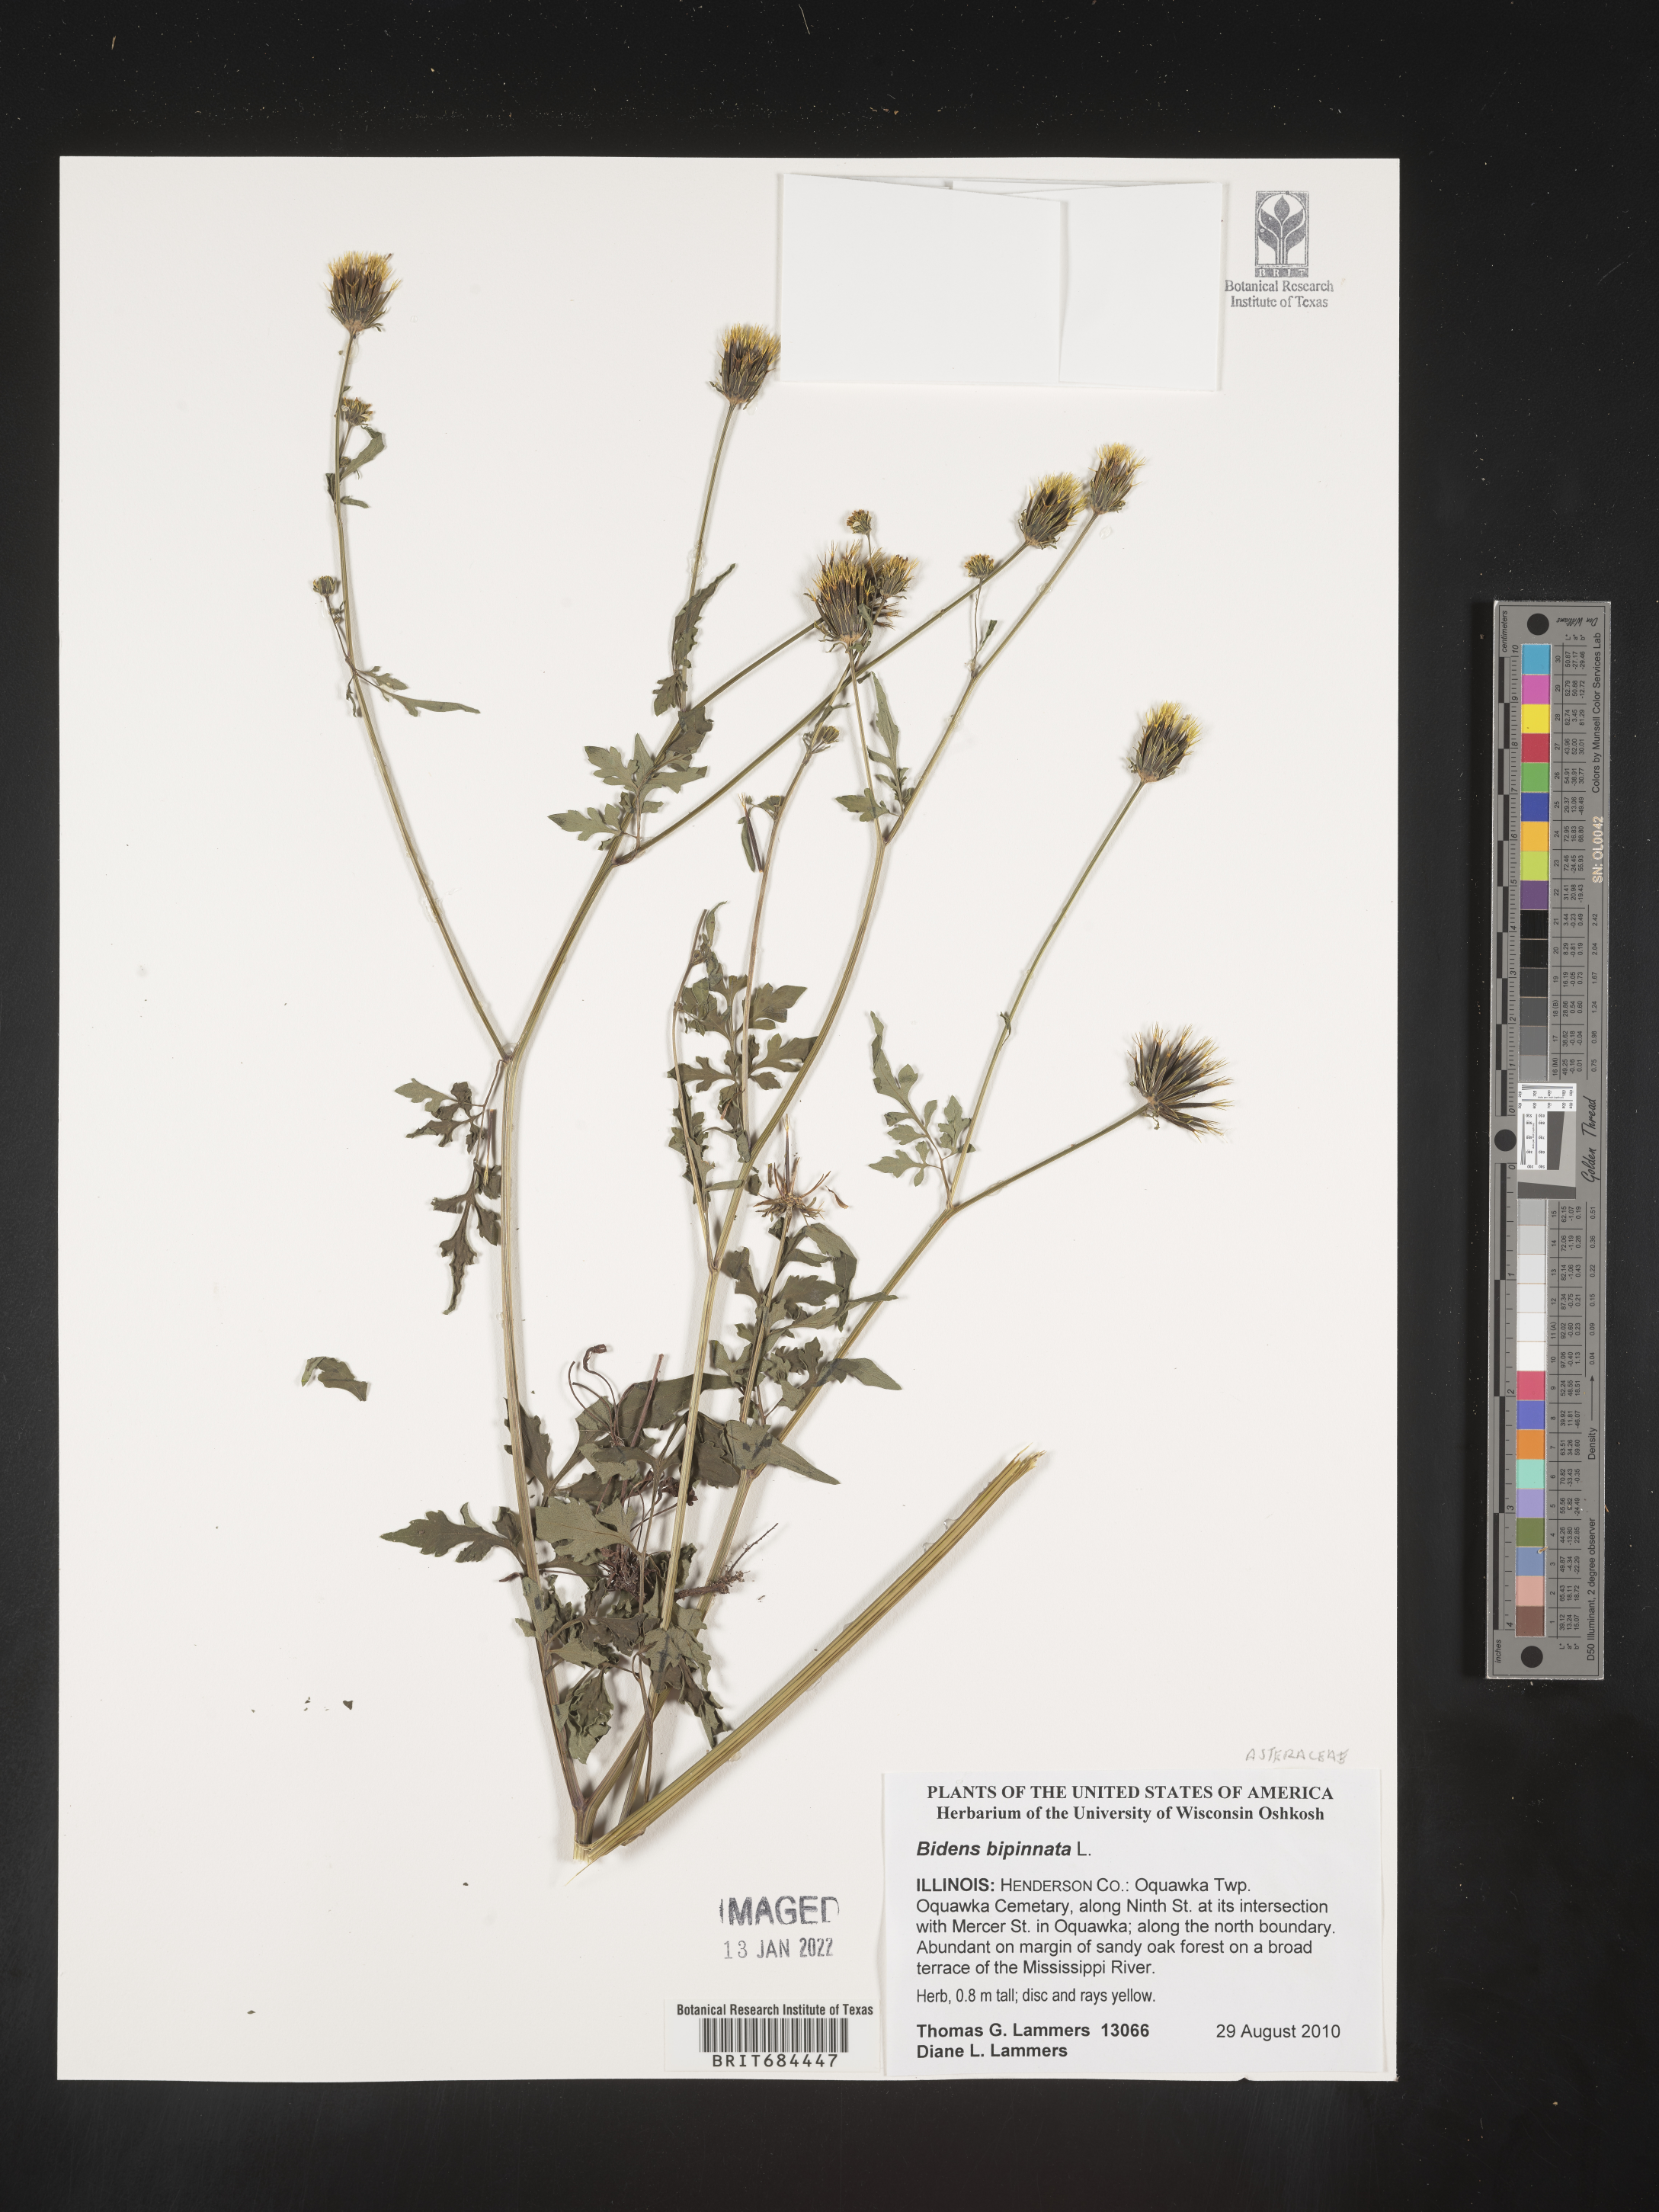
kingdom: Plantae
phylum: Tracheophyta
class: Magnoliopsida
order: Asterales
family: Asteraceae
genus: Bidens
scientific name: Bidens bipinnata
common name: Spanish-needles
